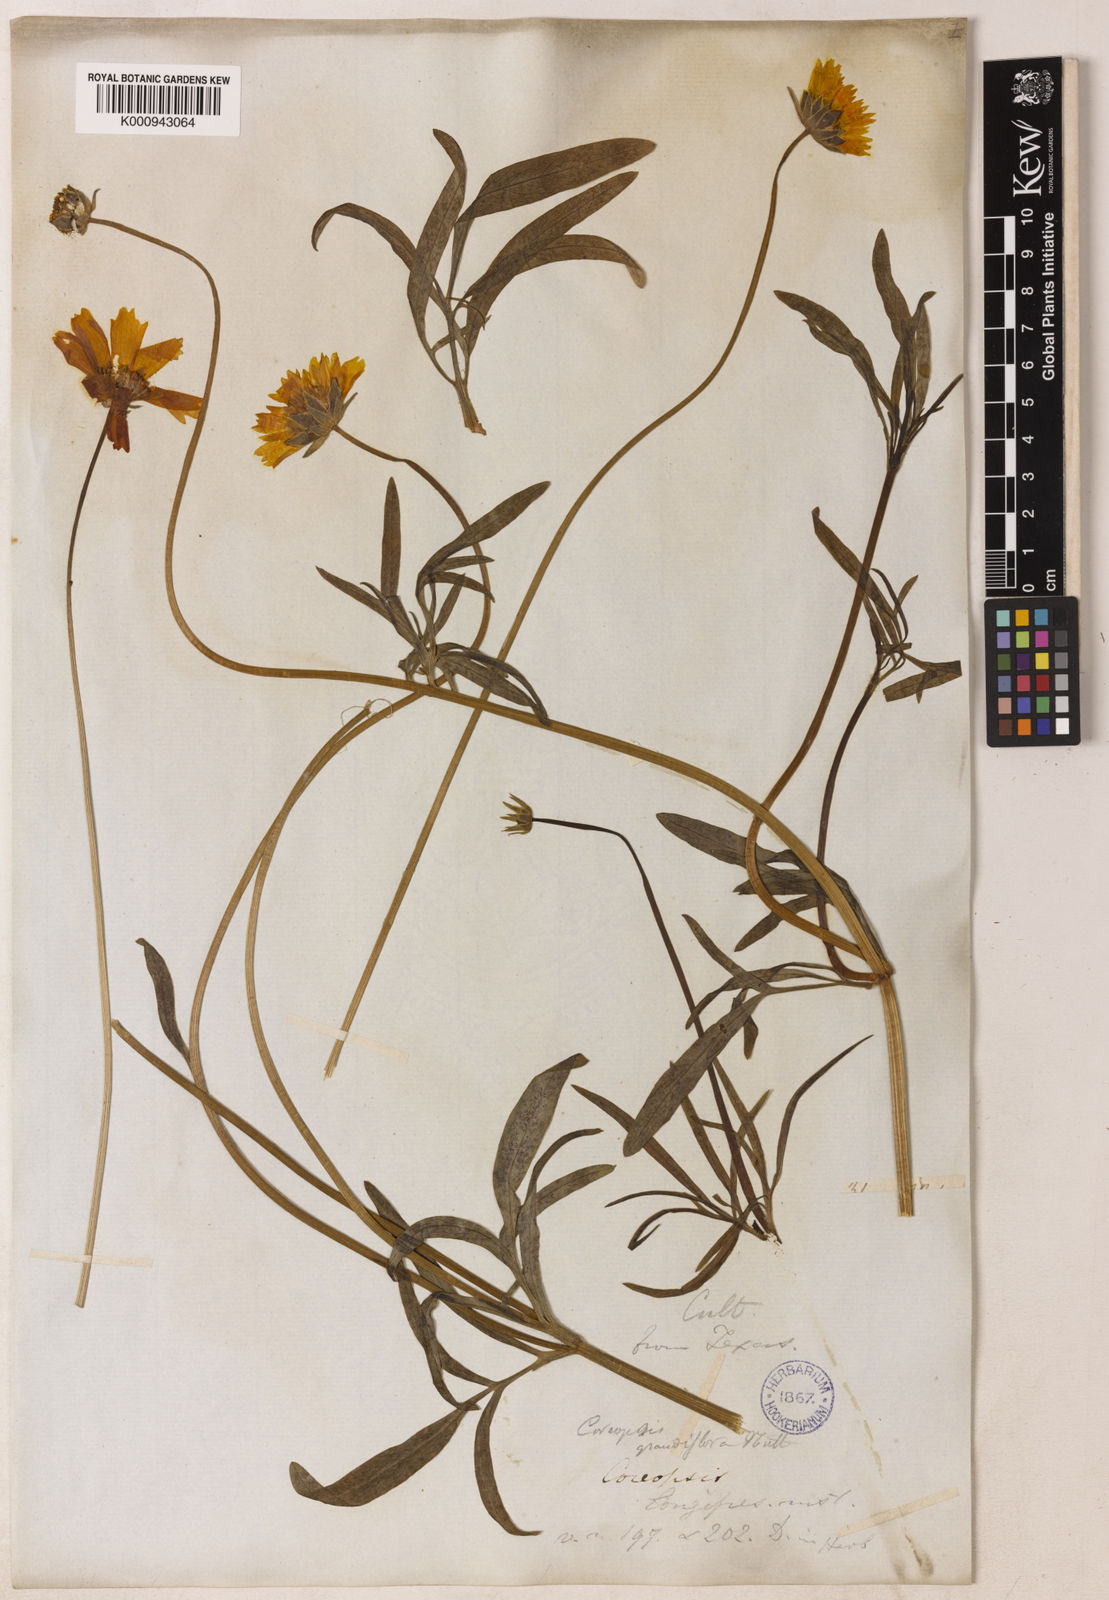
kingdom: Plantae
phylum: Tracheophyta
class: Magnoliopsida
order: Asterales
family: Asteraceae
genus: Coreopsis
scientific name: Coreopsis grandiflora
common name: Large-flowered tickseed
